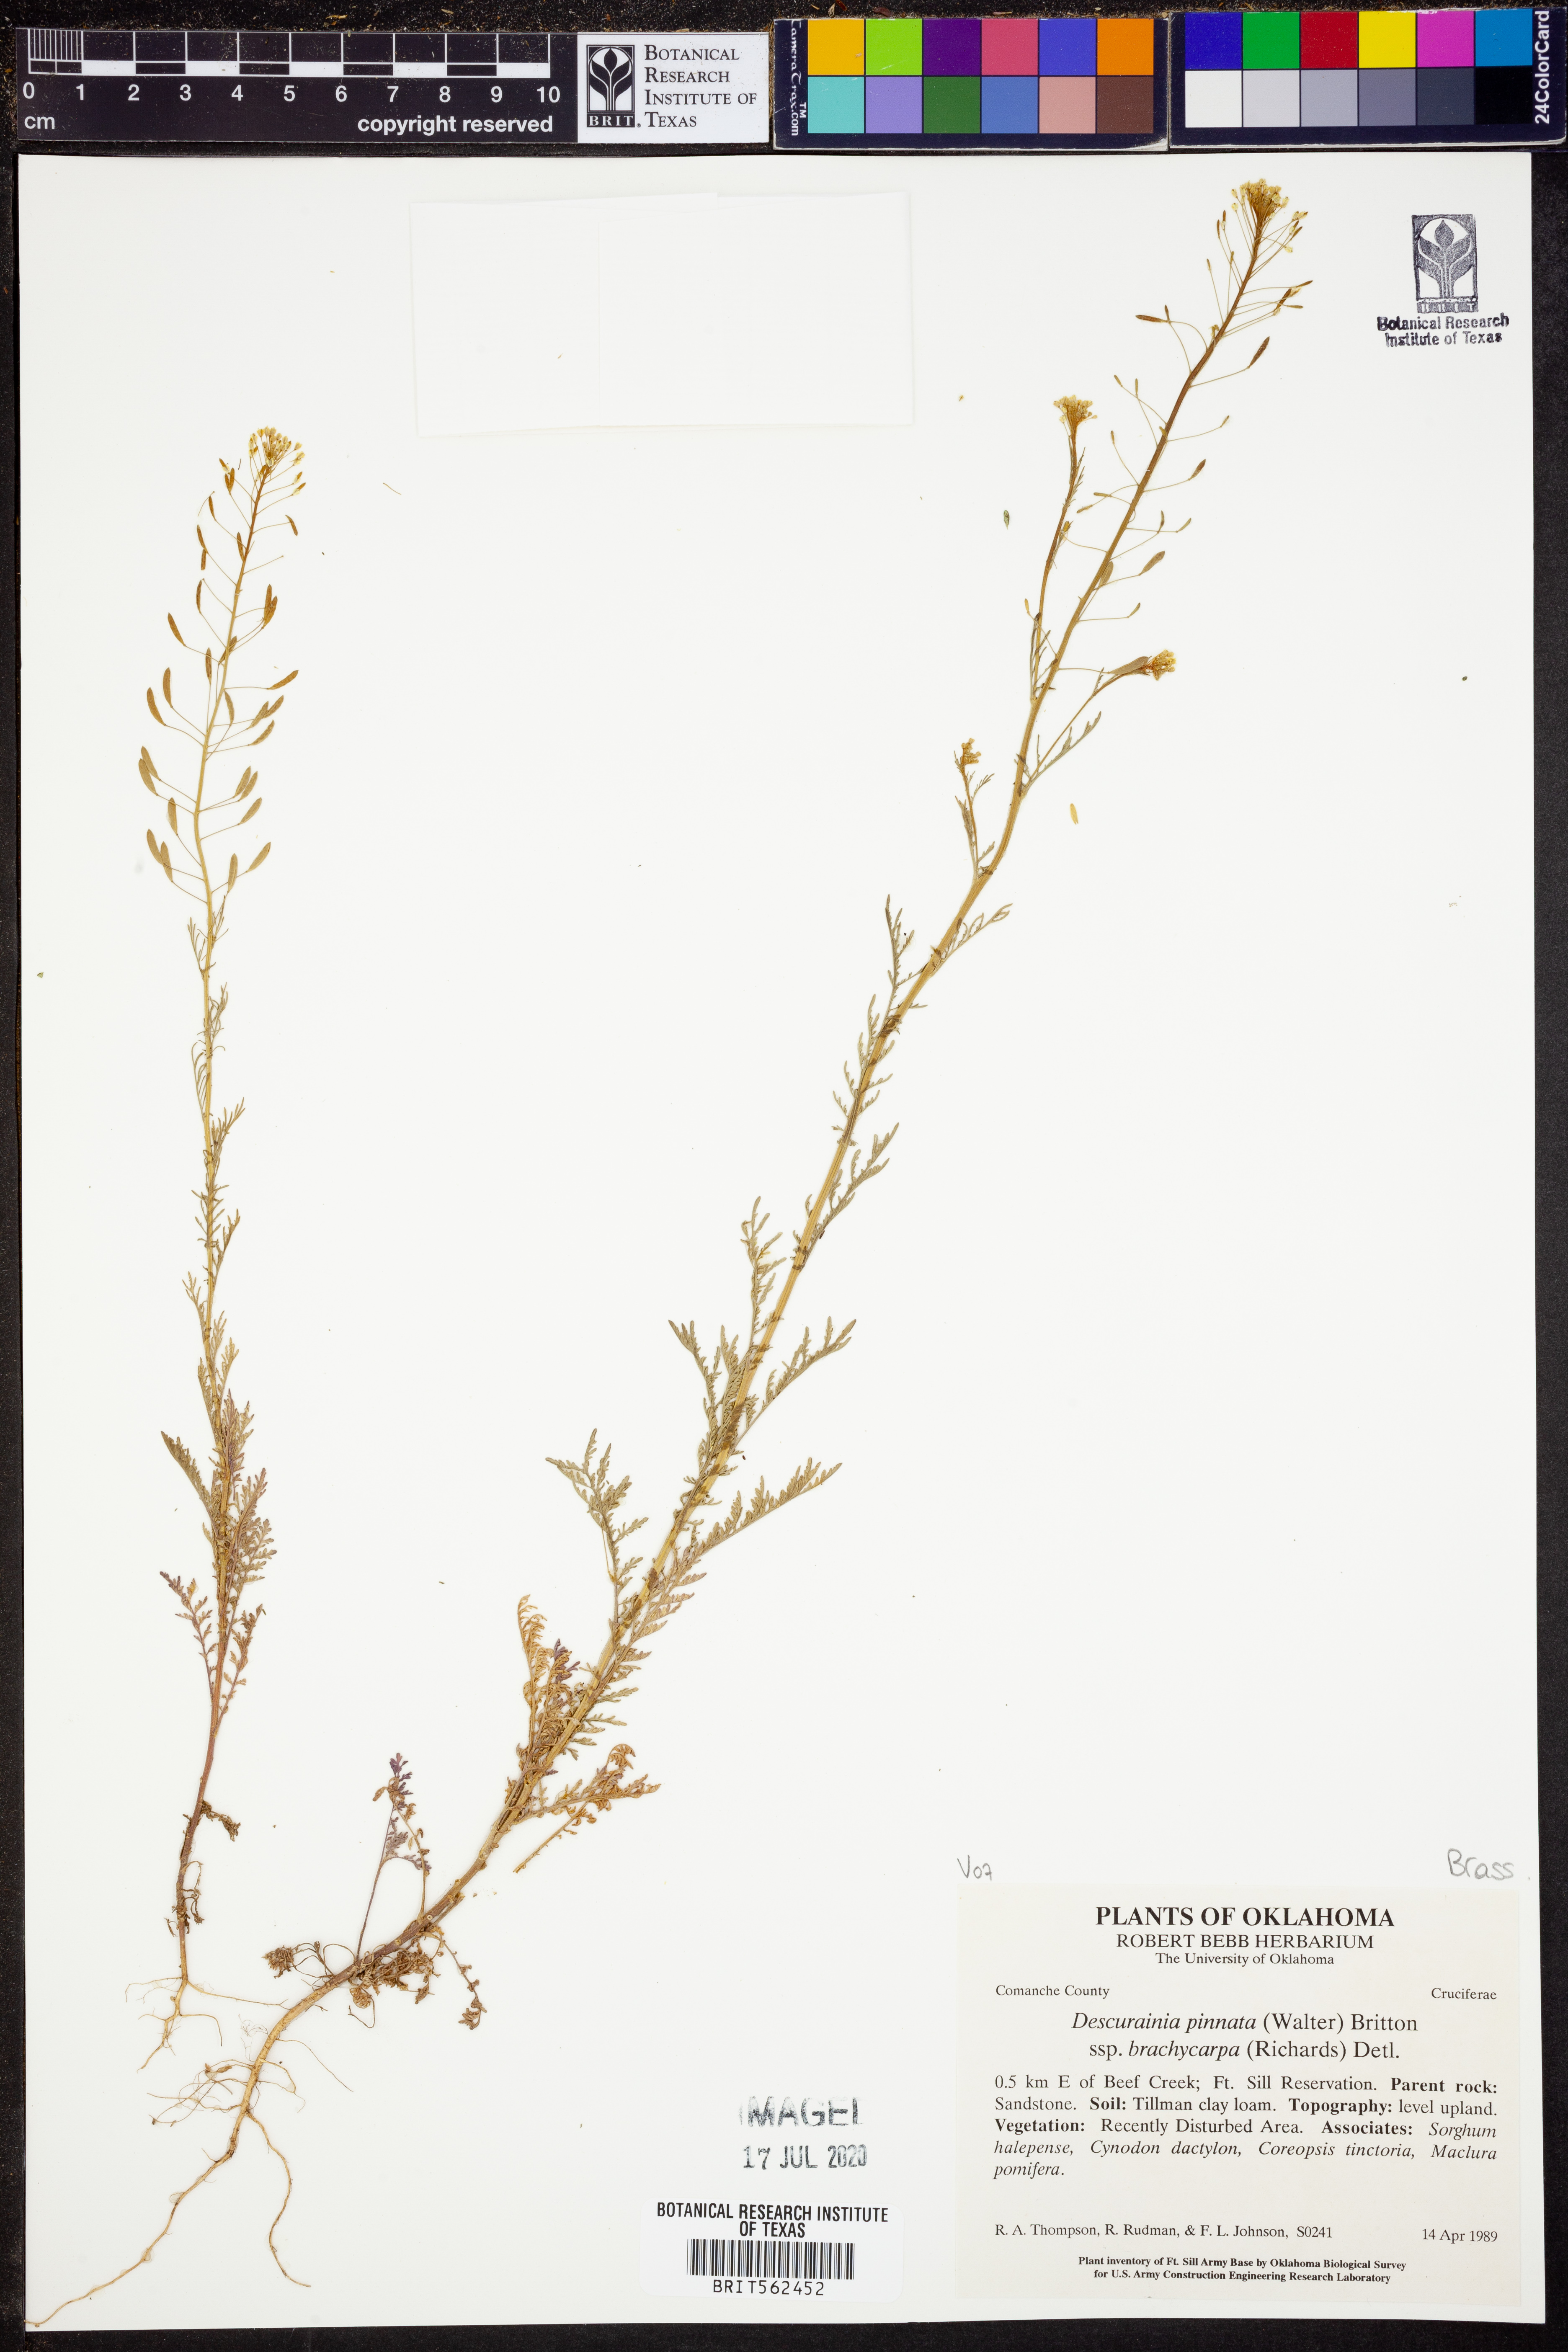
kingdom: Plantae
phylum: Tracheophyta
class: Magnoliopsida
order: Brassicales
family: Brassicaceae
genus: Descurainia
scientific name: Descurainia pinnata
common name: Western tansy mustard
